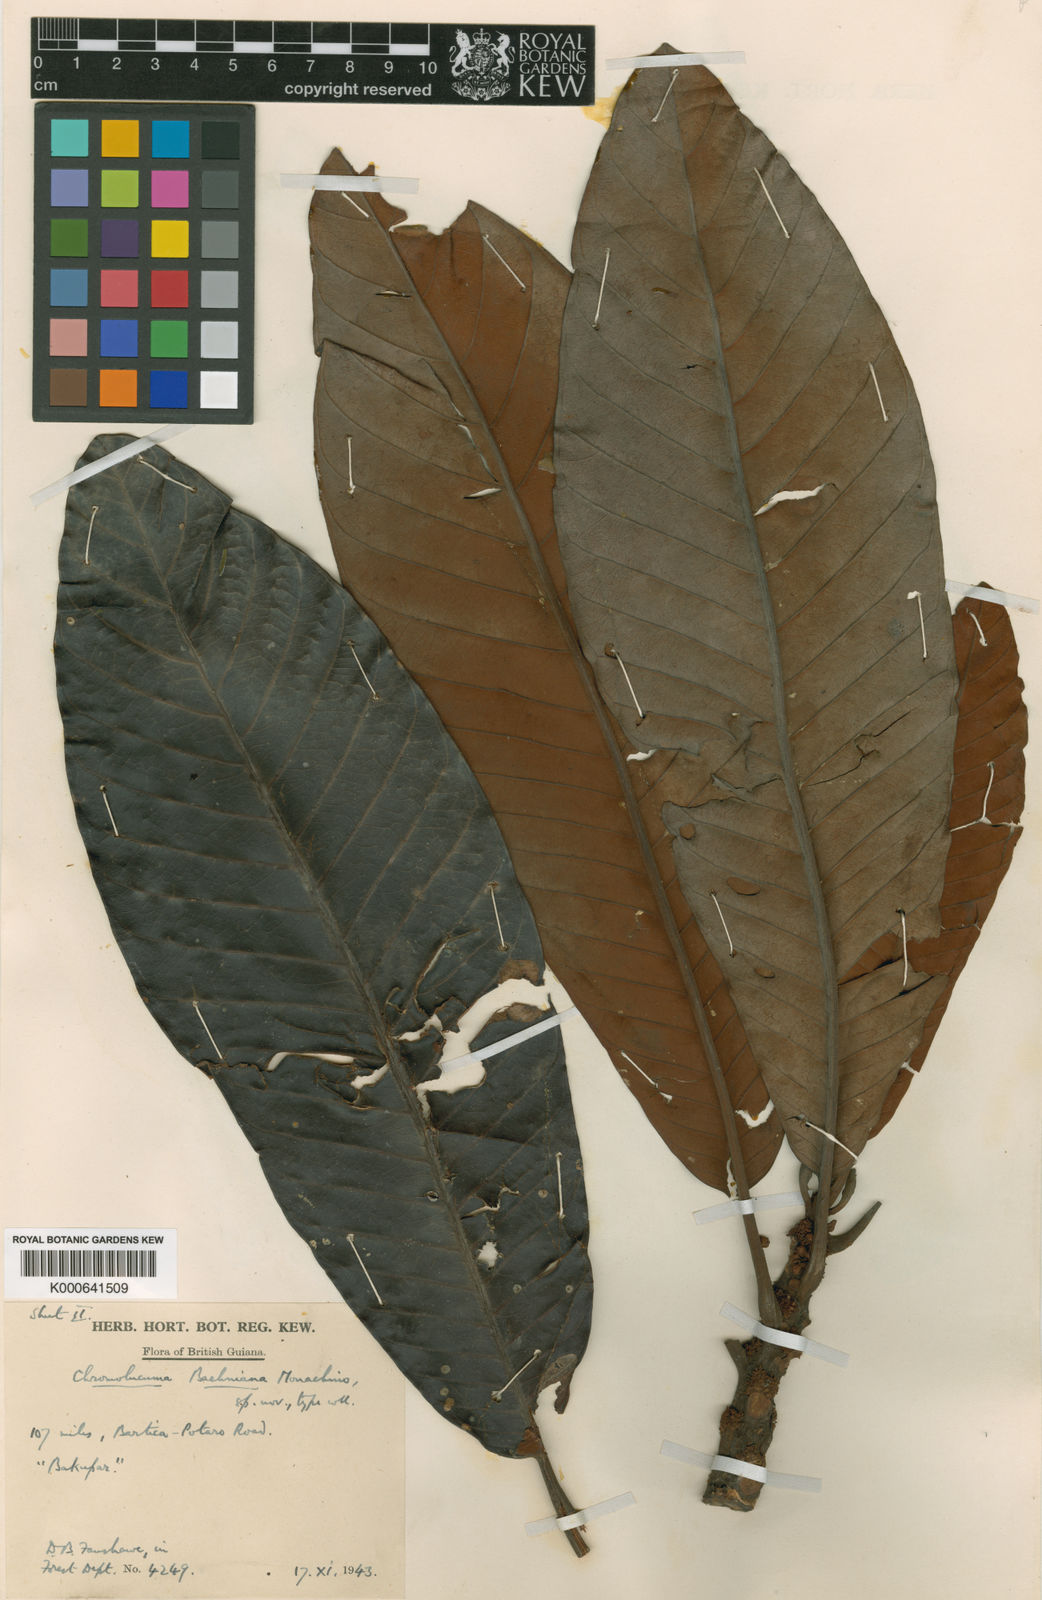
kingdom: Plantae
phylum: Tracheophyta
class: Magnoliopsida
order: Ericales
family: Sapotaceae
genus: Chromolucuma
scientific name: Chromolucuma baehniana
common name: Baehni chromolucuma
